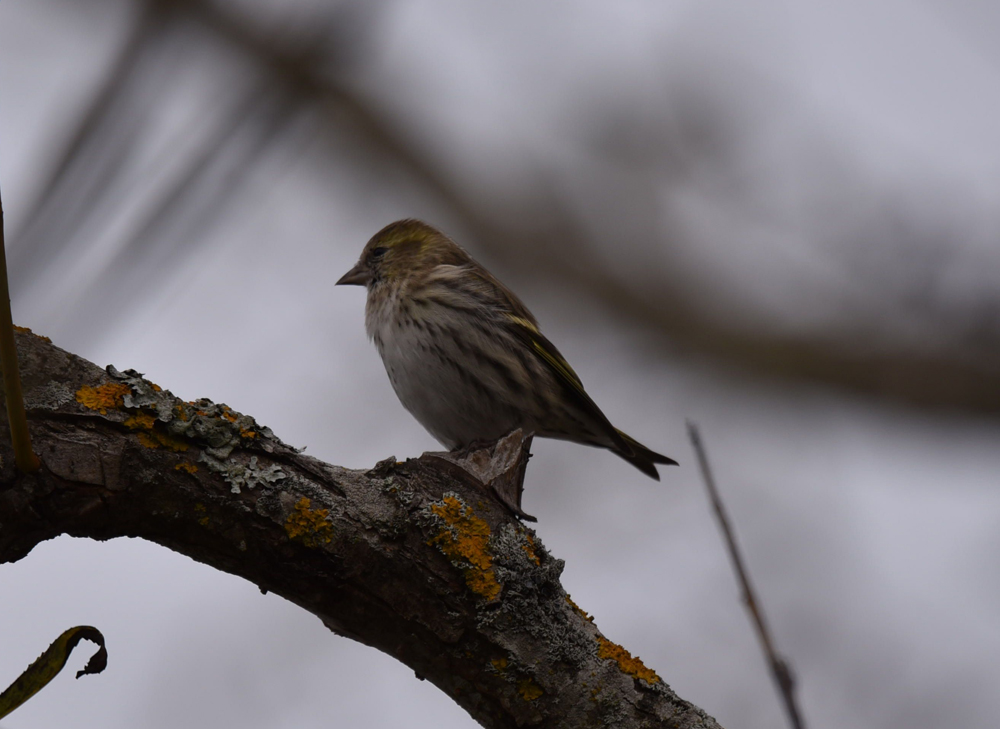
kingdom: Animalia
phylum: Chordata
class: Aves
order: Passeriformes
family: Fringillidae
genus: Spinus
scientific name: Spinus spinus
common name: Eurasian siskin
